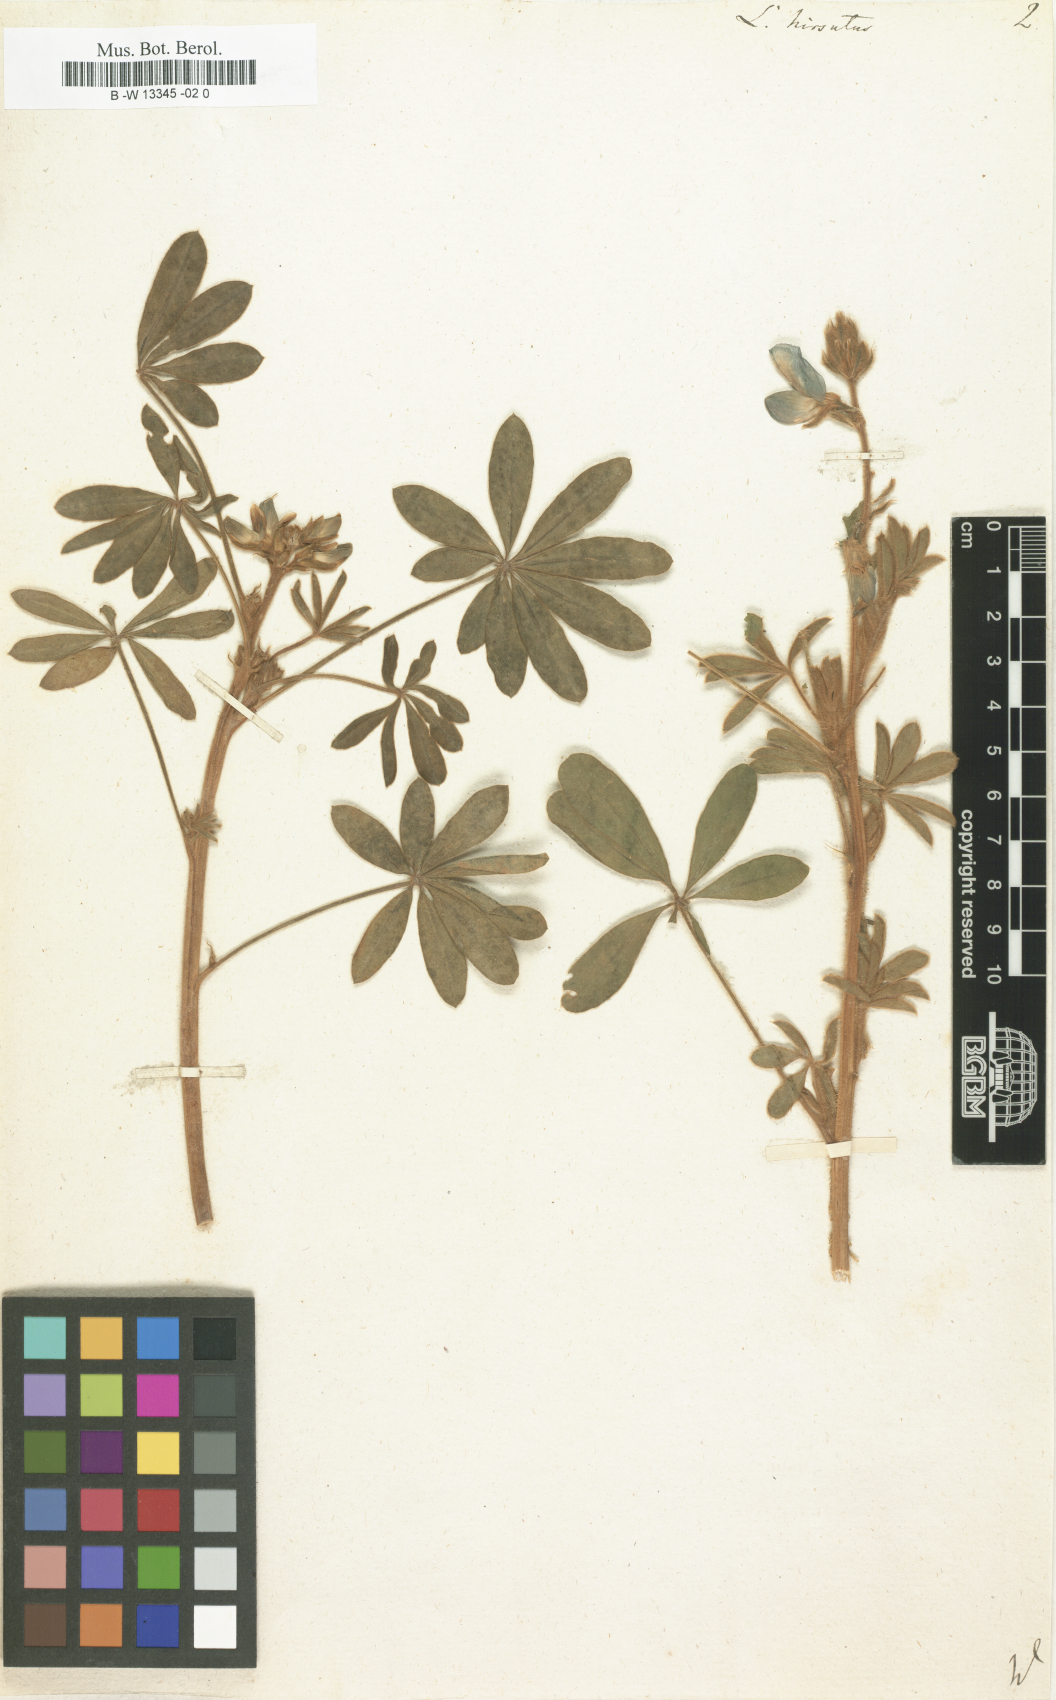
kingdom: Plantae
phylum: Tracheophyta
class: Magnoliopsida
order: Fabales
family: Fabaceae
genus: Lupinus
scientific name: Lupinus
